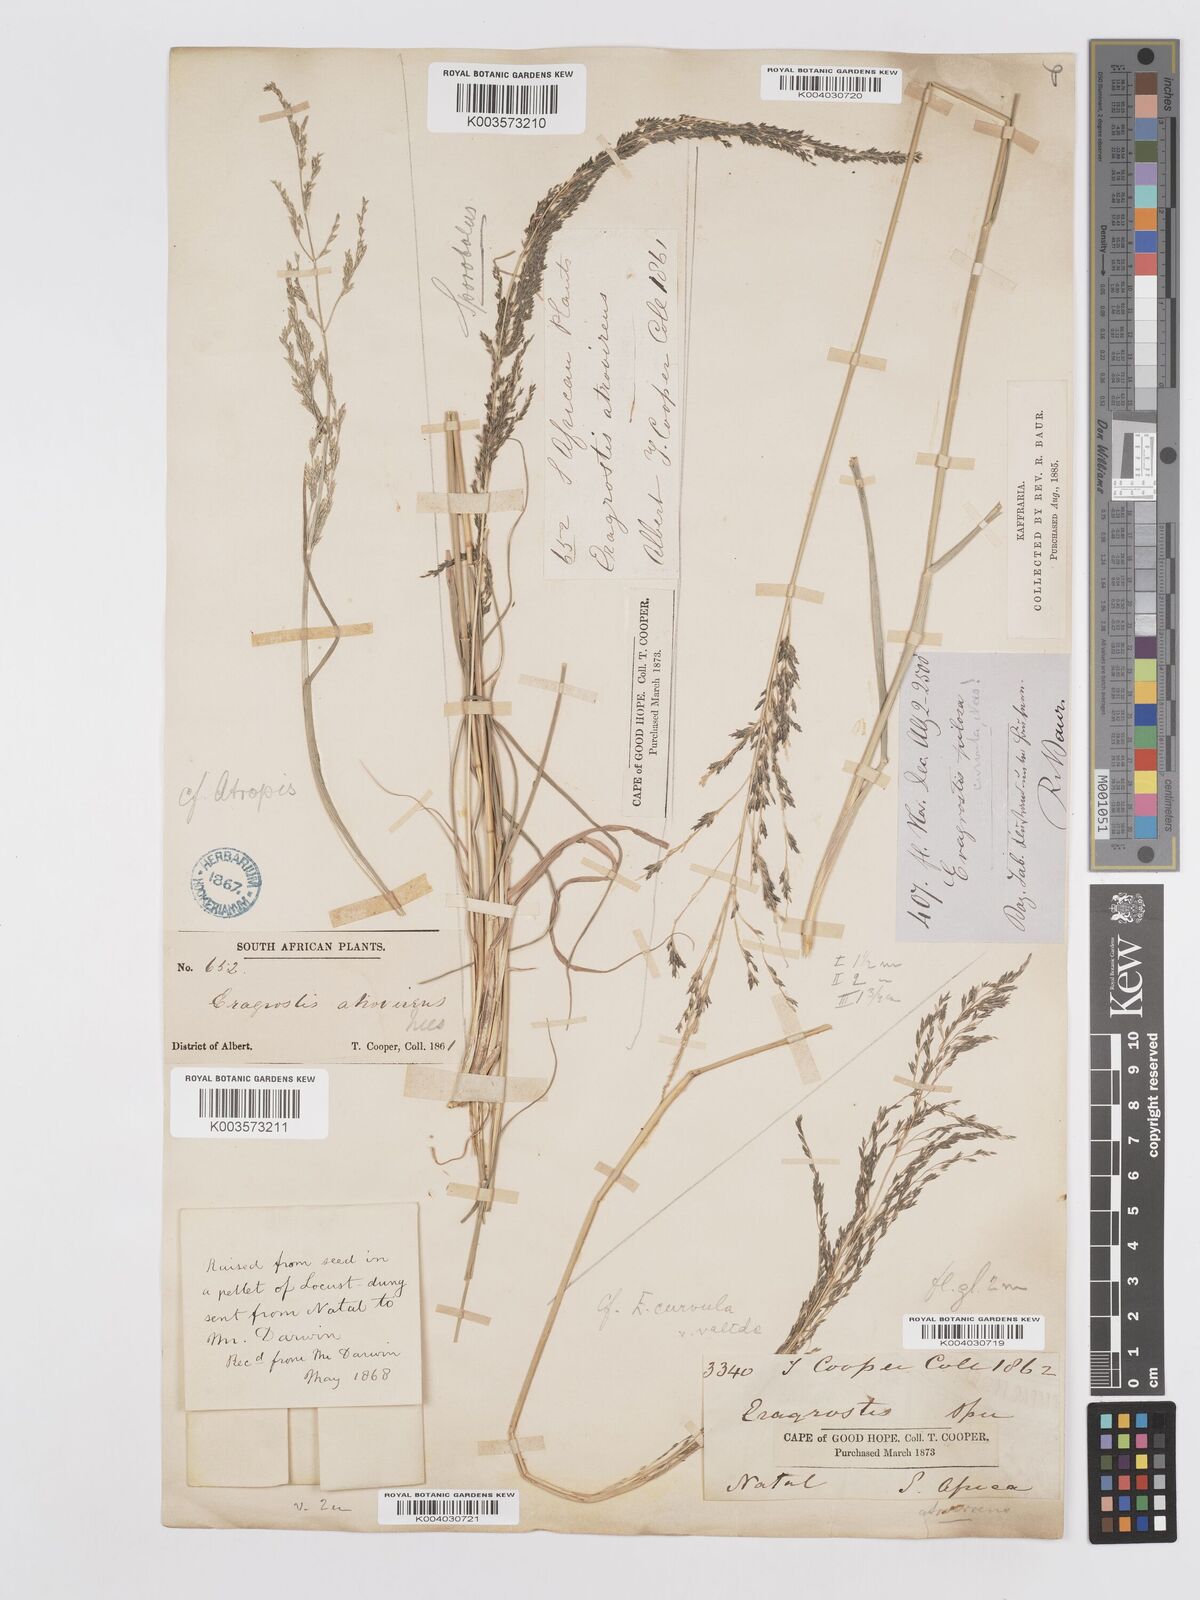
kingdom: Plantae
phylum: Tracheophyta
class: Liliopsida
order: Poales
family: Poaceae
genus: Eragrostis
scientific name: Eragrostis curvula
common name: African love-grass
